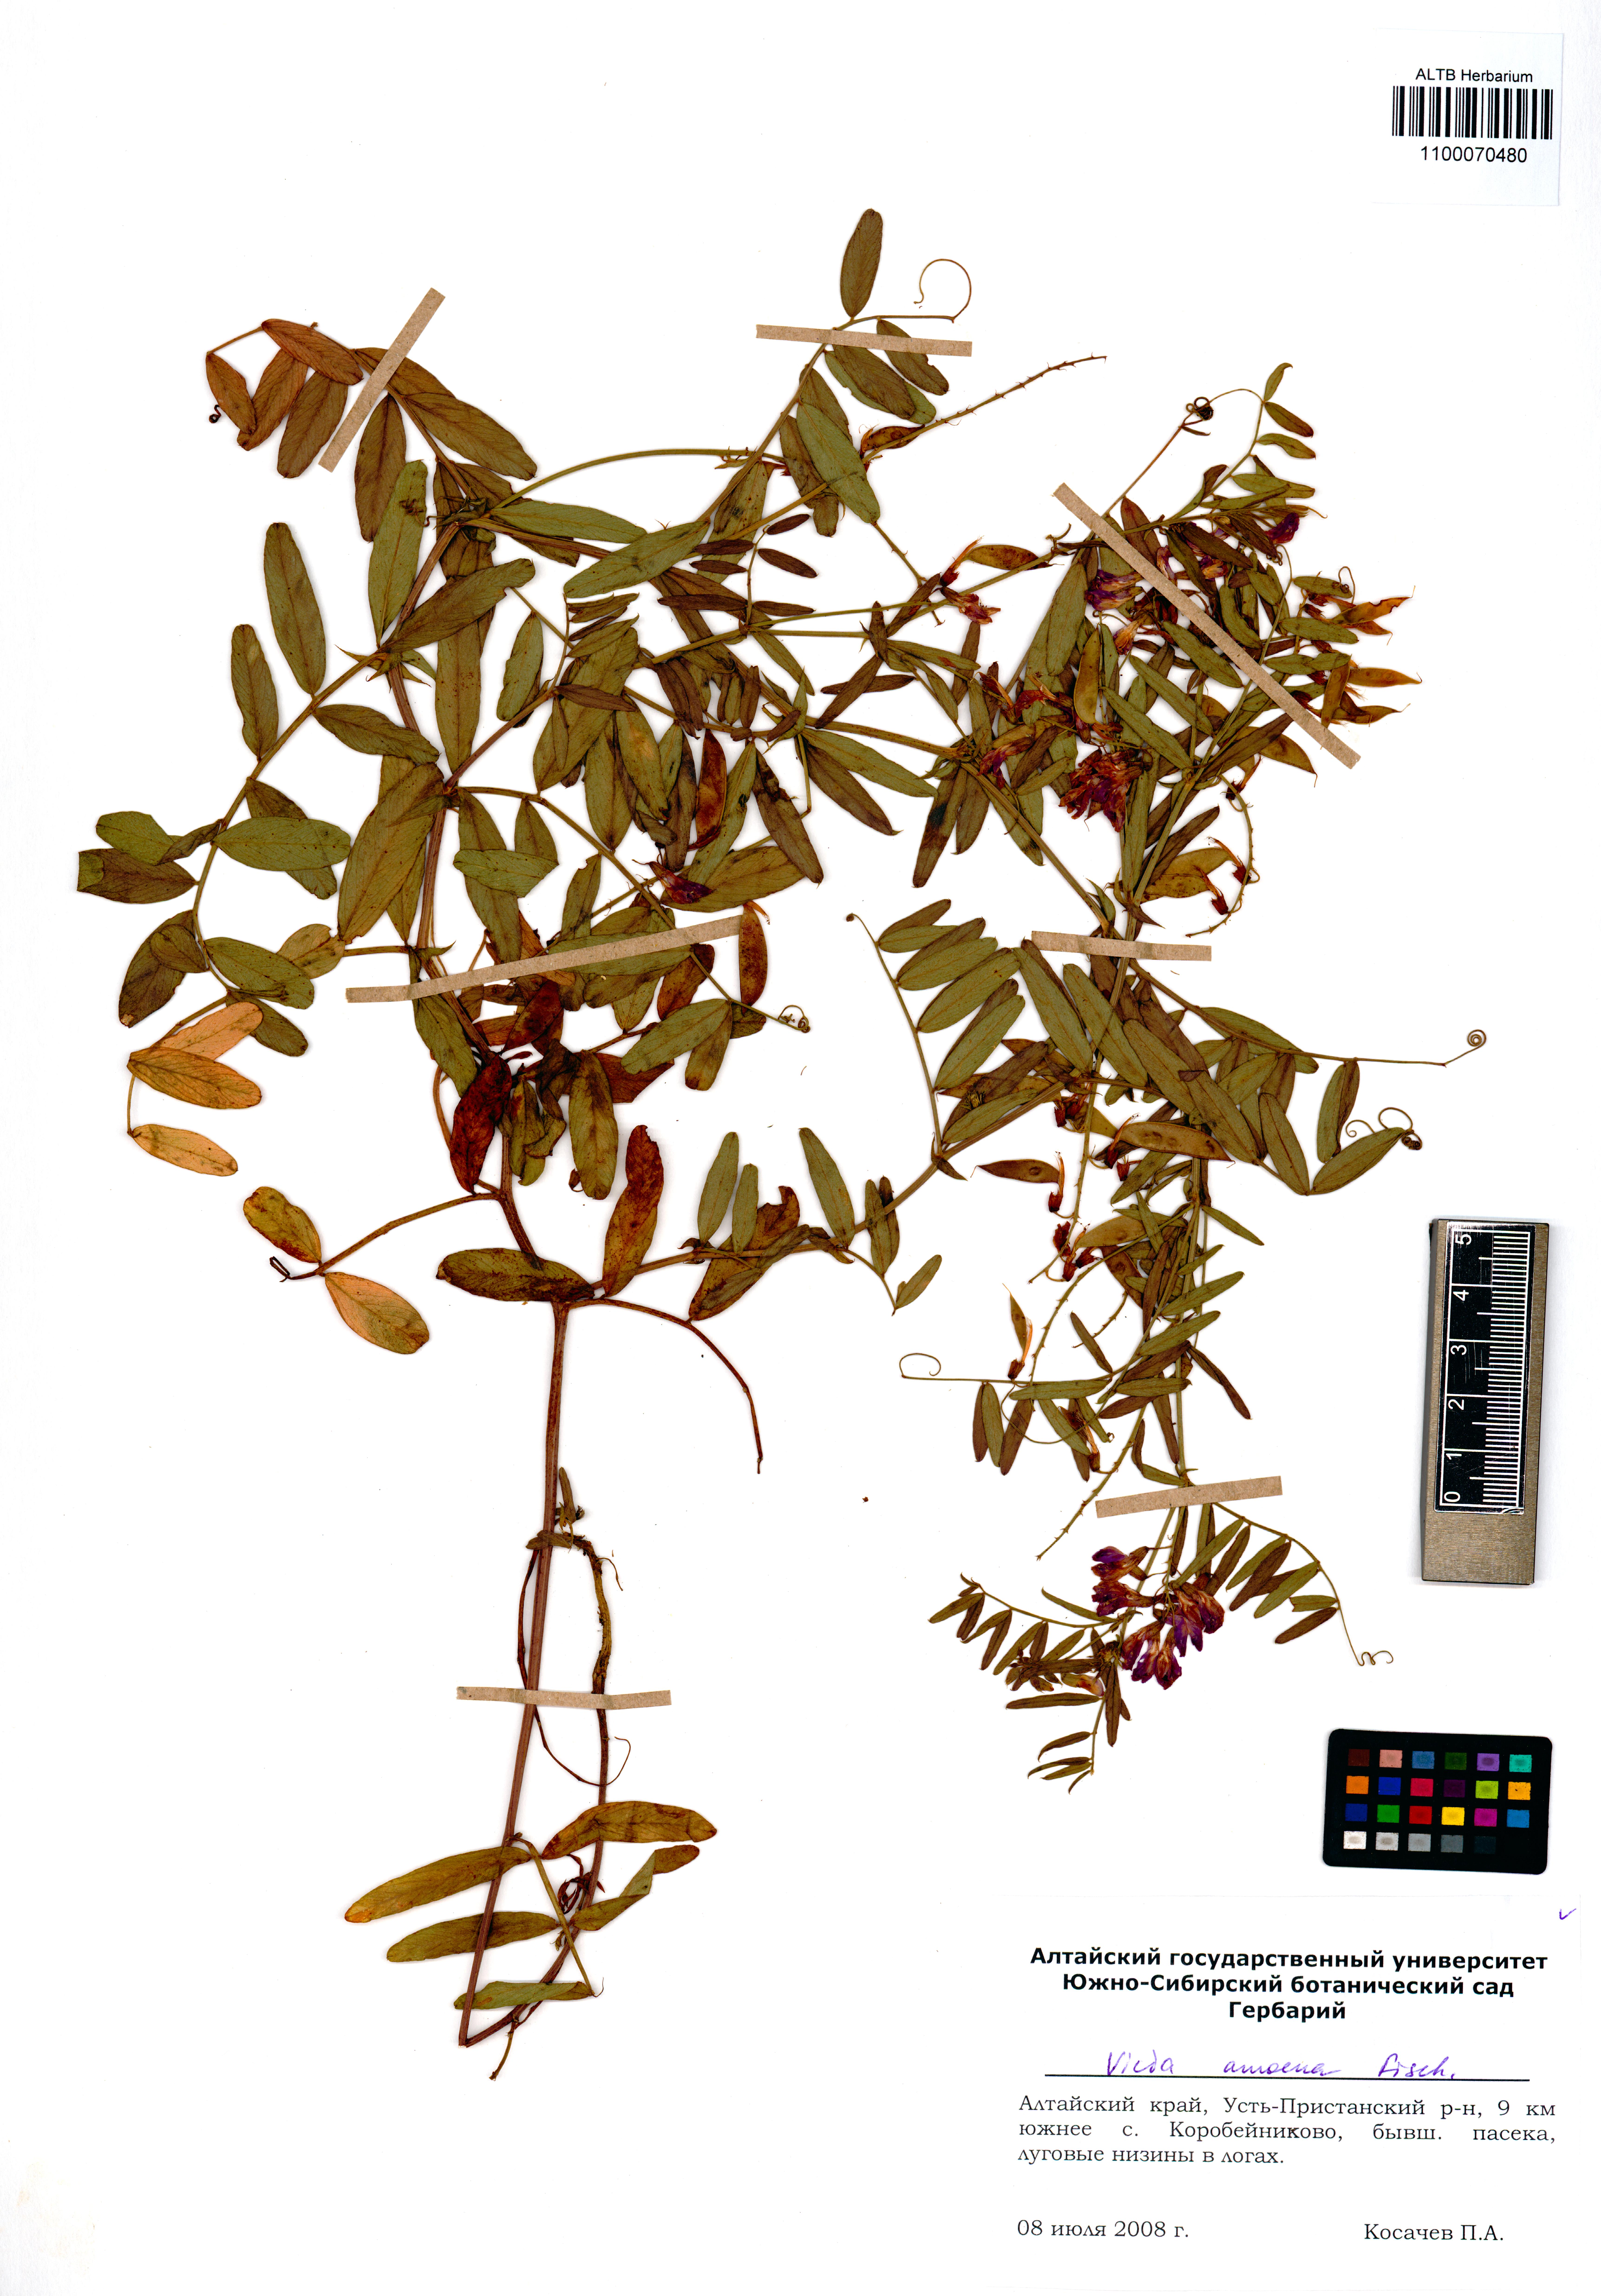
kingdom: Plantae
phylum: Tracheophyta
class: Magnoliopsida
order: Fabales
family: Fabaceae
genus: Vicia
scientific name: Vicia amoena
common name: Cheder ebs
